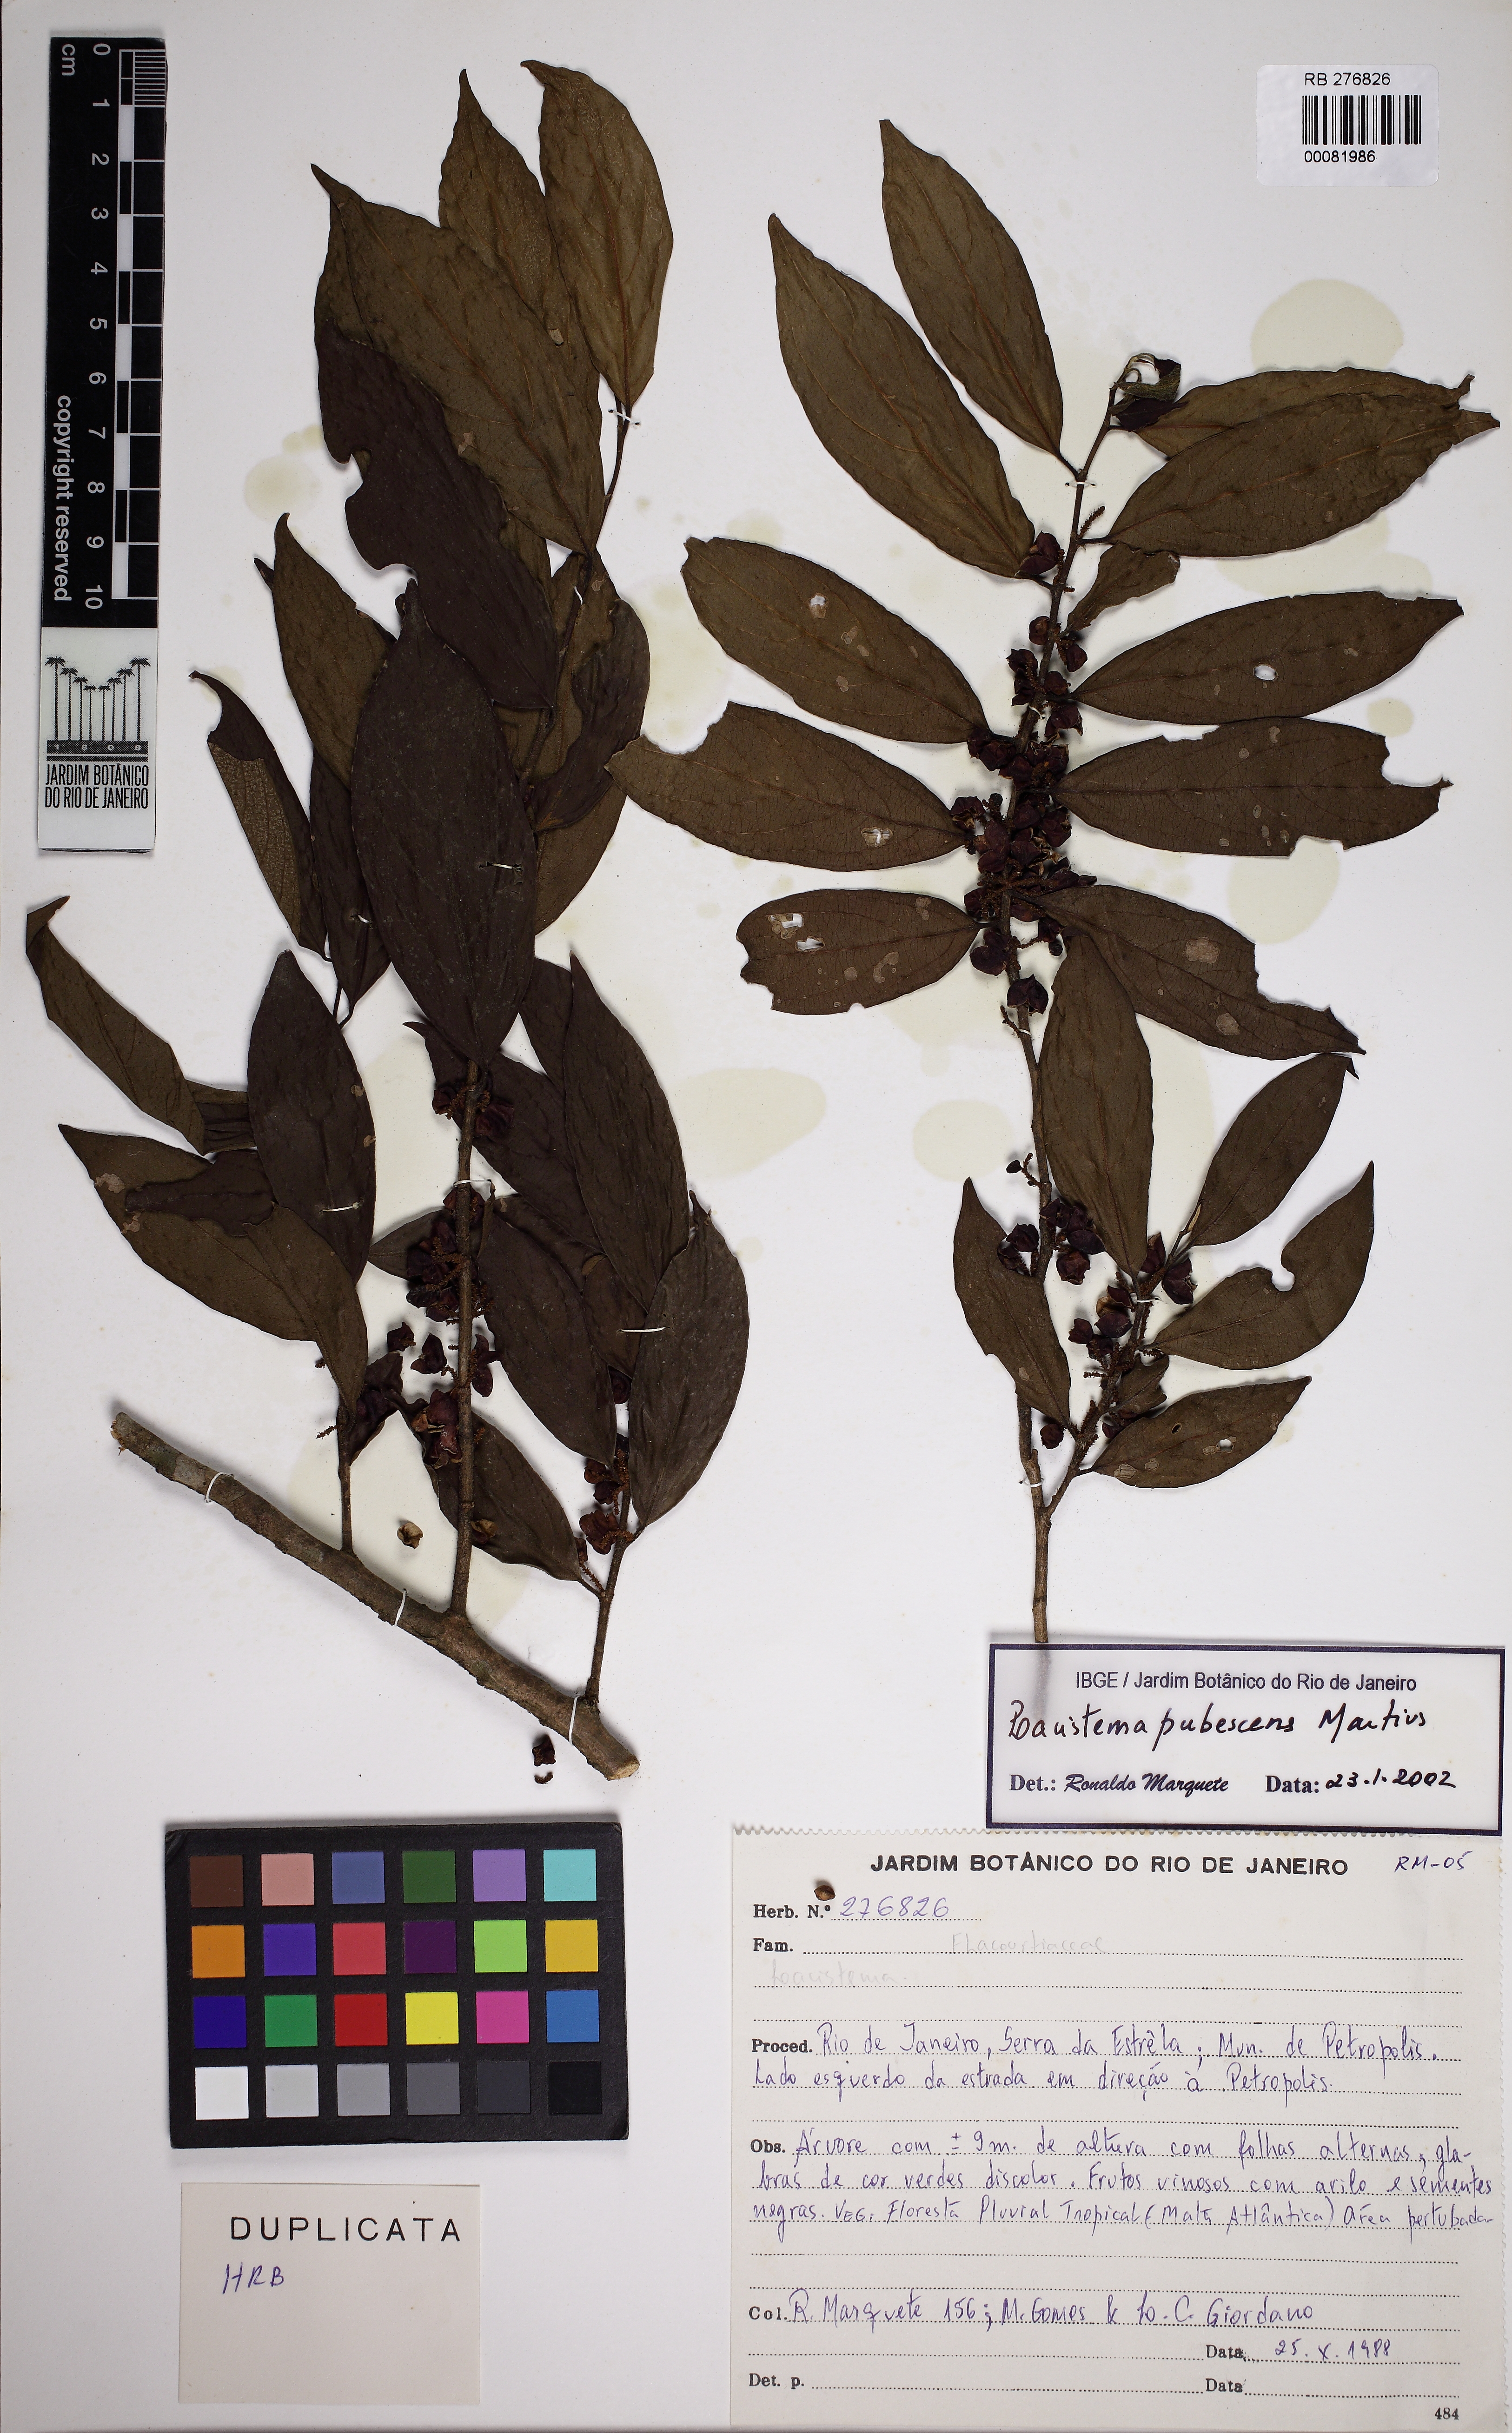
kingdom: Plantae
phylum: Tracheophyta
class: Magnoliopsida
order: Malpighiales
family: Lacistemataceae
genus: Lacistema
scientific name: Lacistema pubescens
